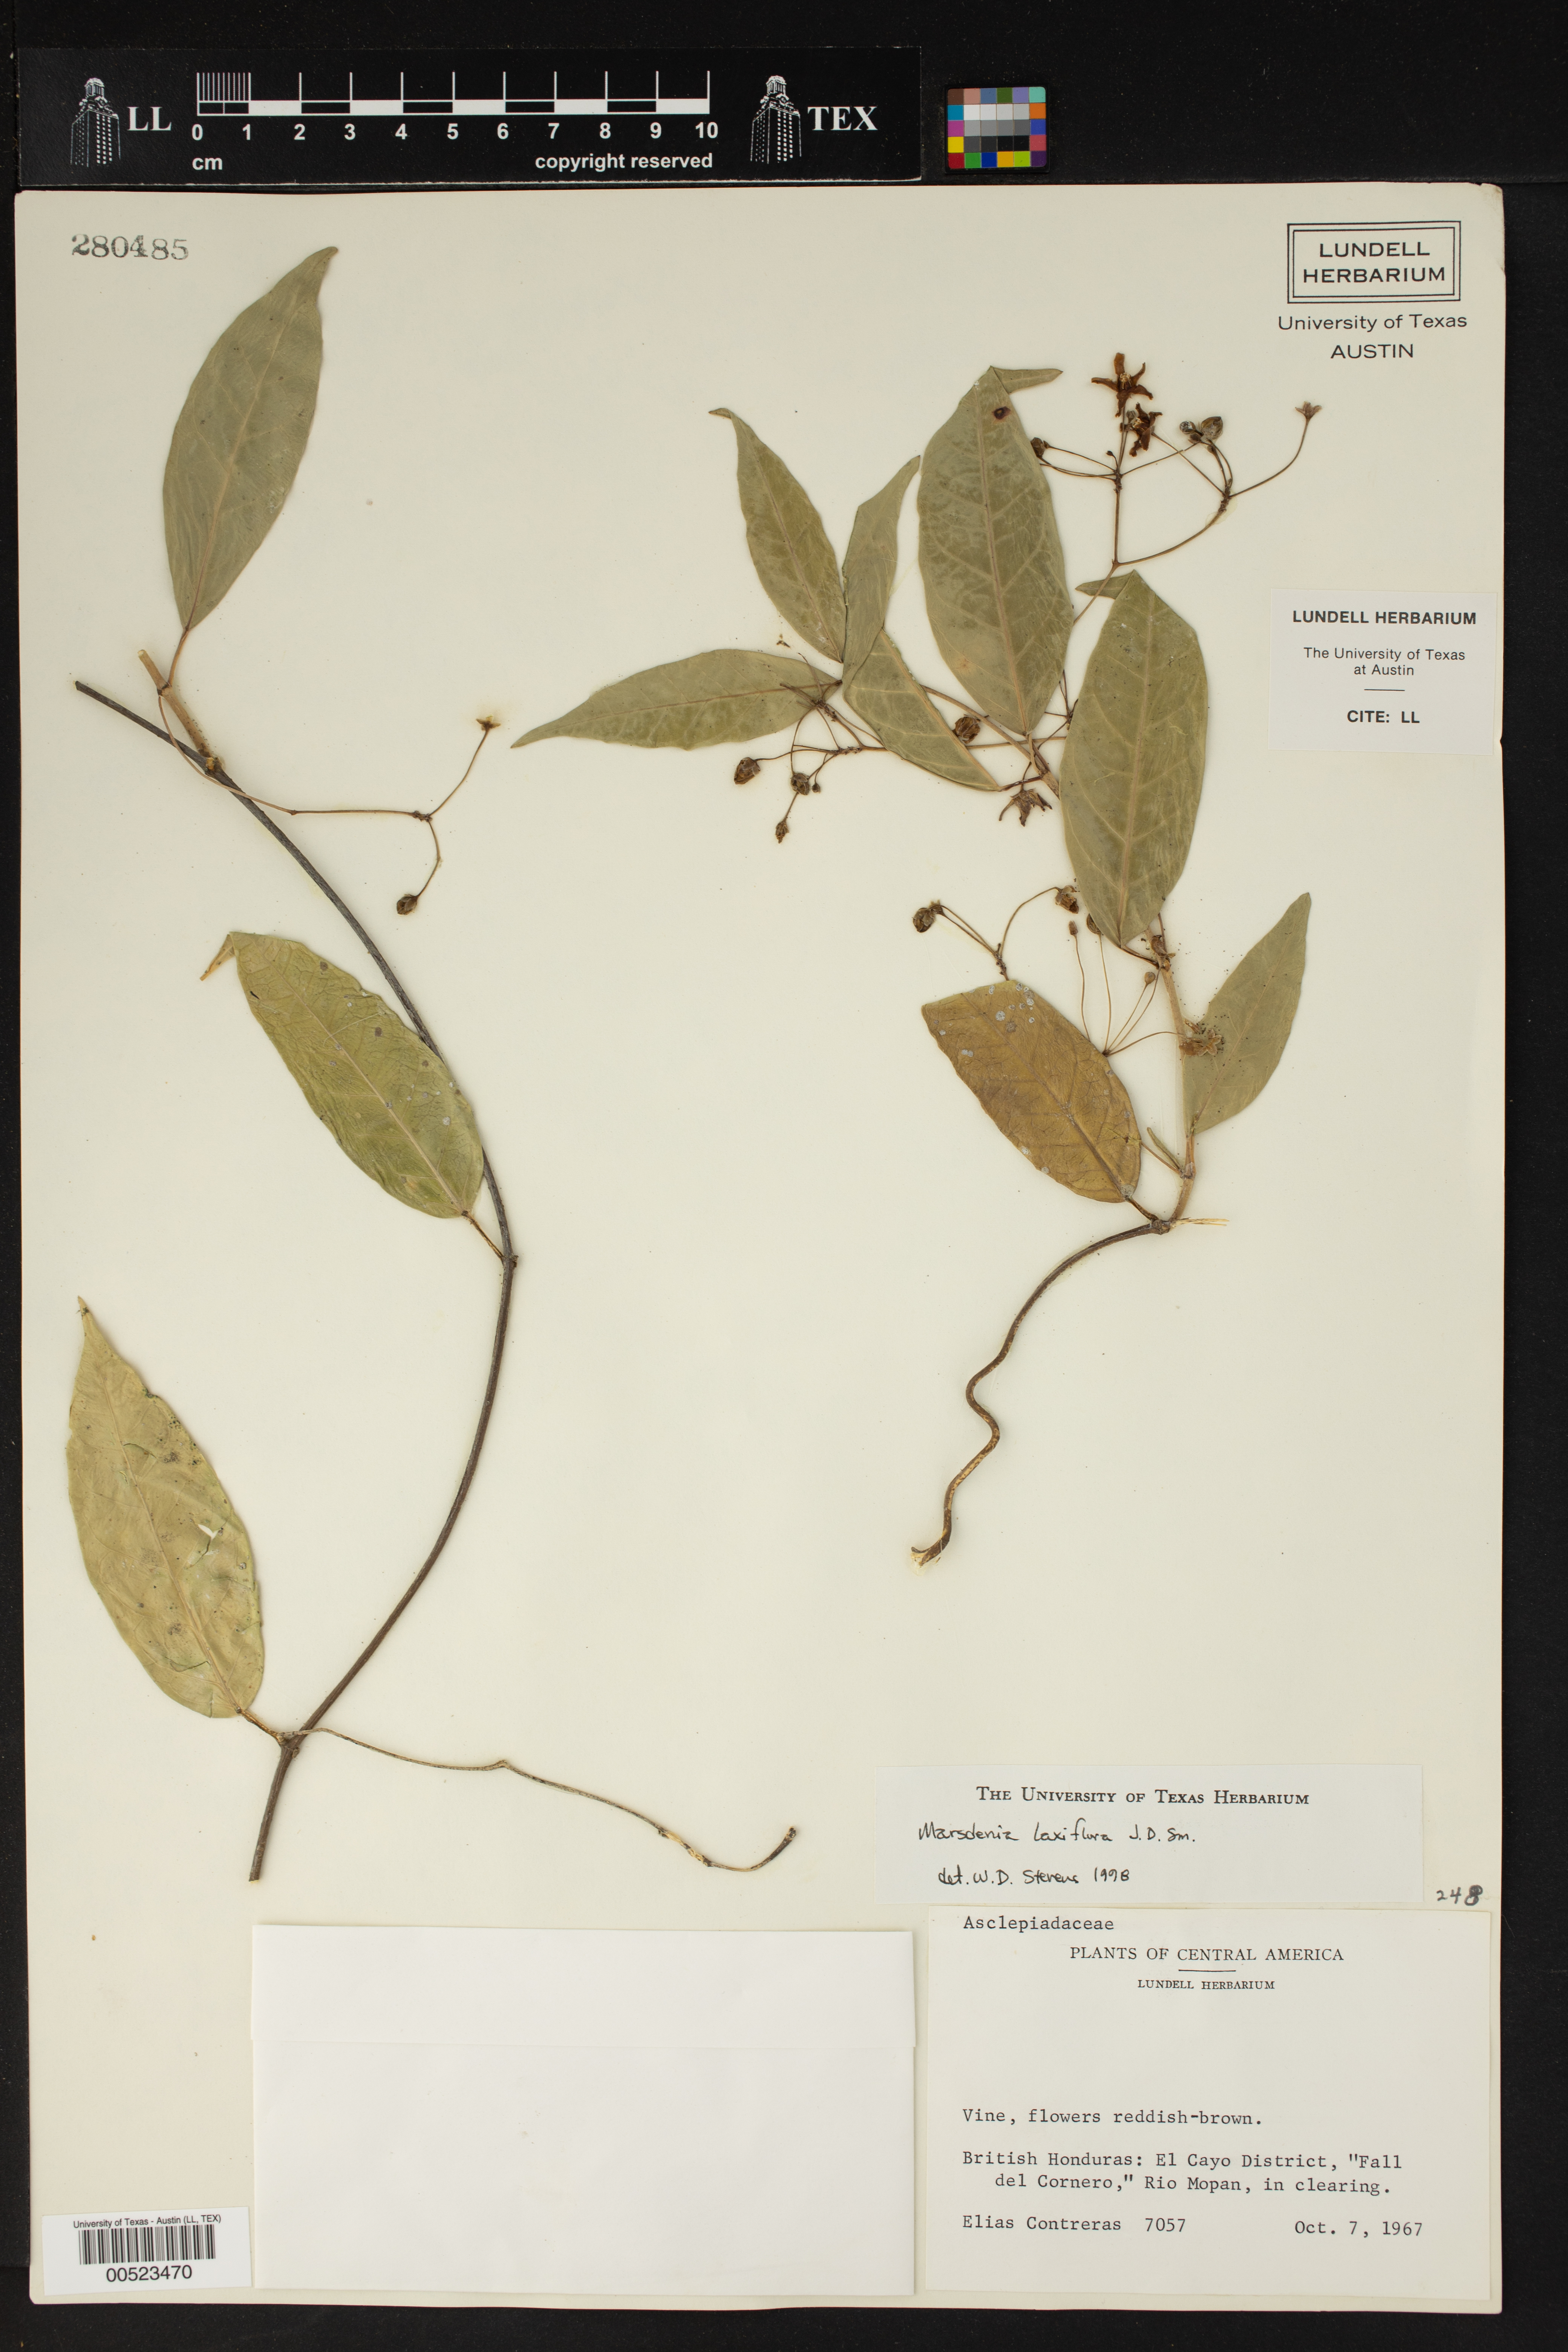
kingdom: Plantae
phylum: Tracheophyta
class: Magnoliopsida
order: Gentianales
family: Apocynaceae
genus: Ruehssia
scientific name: Ruehssia laxiflora
